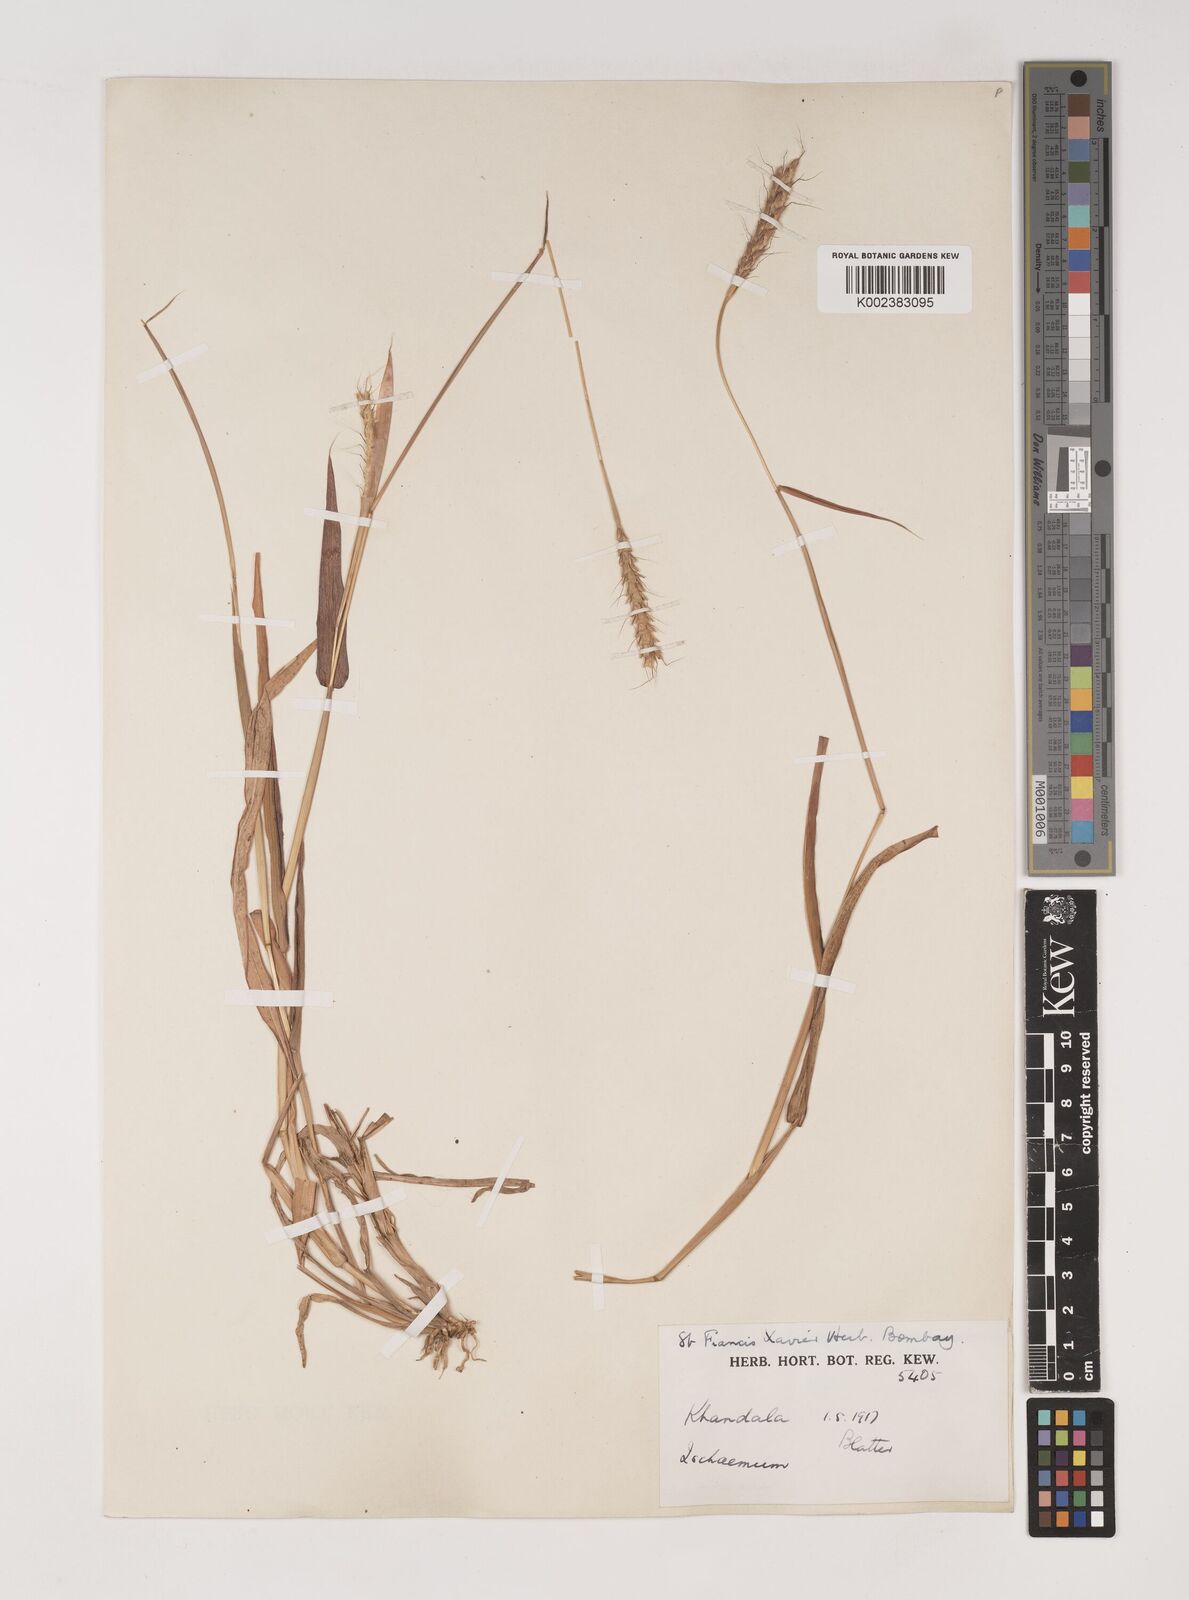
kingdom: Plantae
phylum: Tracheophyta
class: Liliopsida
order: Poales
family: Poaceae
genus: Ischaemum
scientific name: Ischaemum molle
